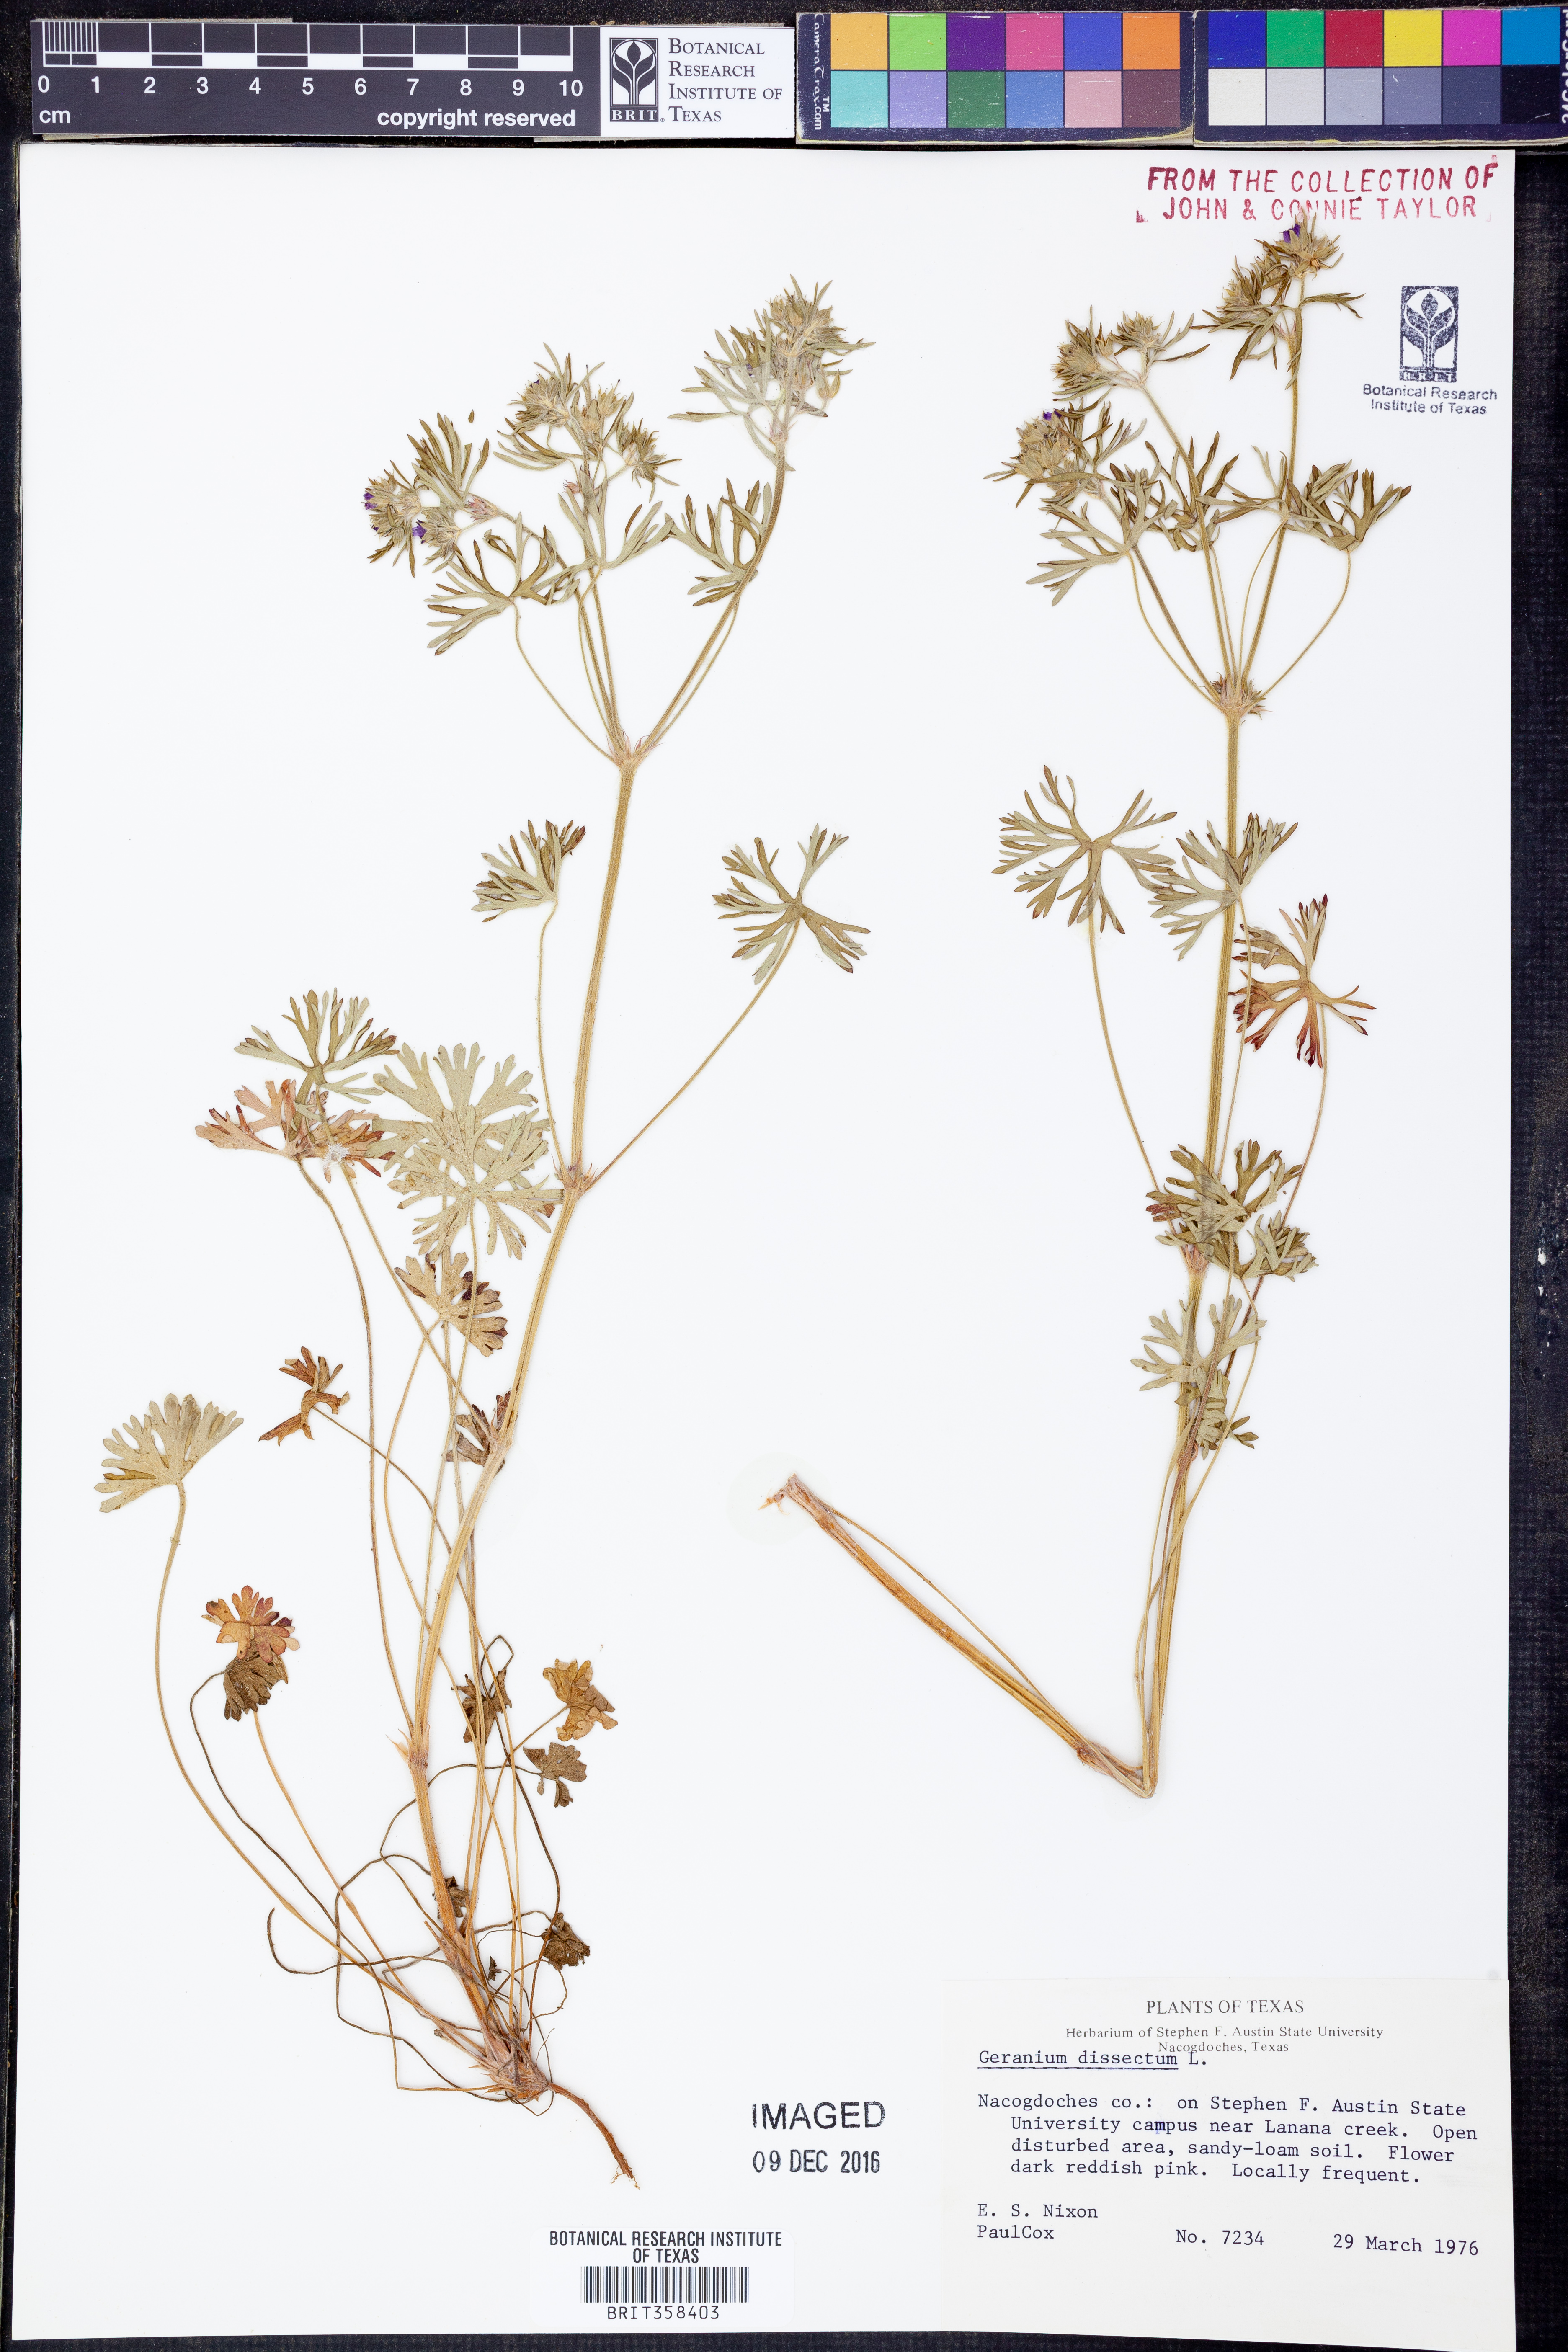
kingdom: Plantae
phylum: Tracheophyta
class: Magnoliopsida
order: Geraniales
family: Geraniaceae
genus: Geranium
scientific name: Geranium dissectum
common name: Cut-leaved crane's-bill
